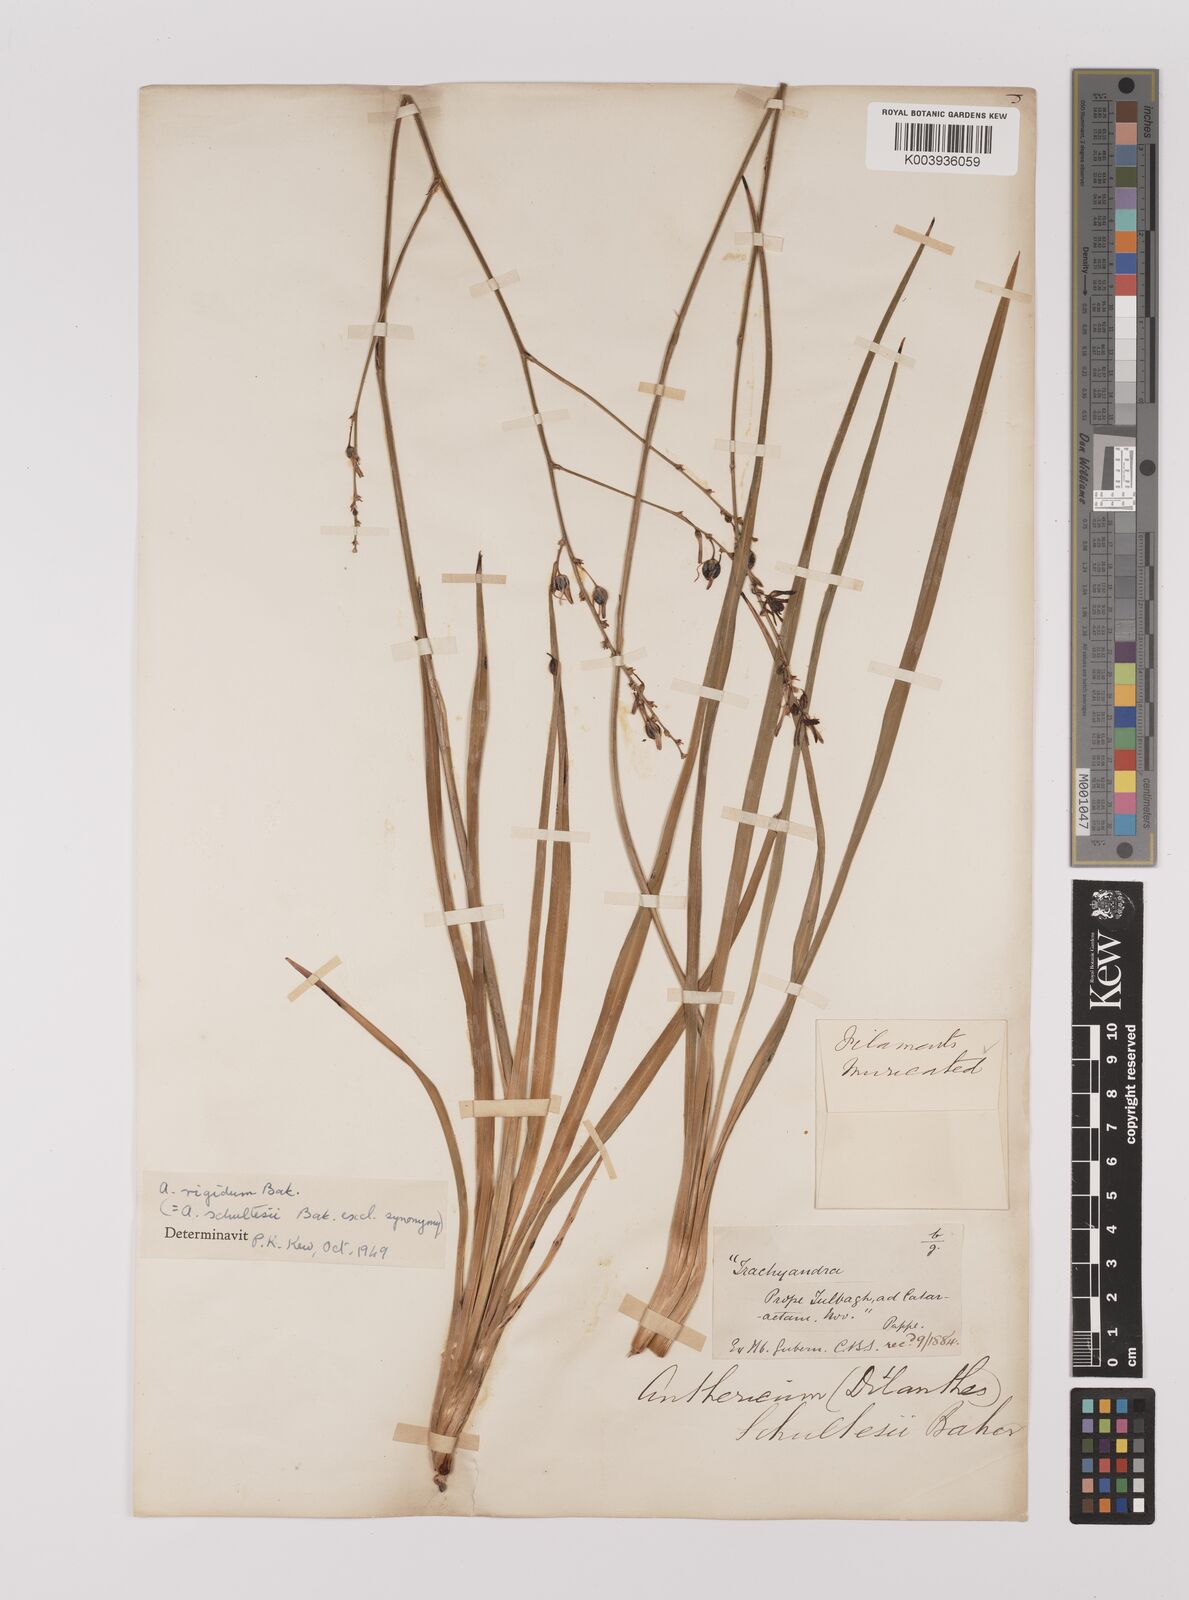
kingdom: Plantae
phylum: Tracheophyta
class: Liliopsida
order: Asparagales
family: Asparagaceae
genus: Chlorophytum
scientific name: Chlorophytum rigidum
